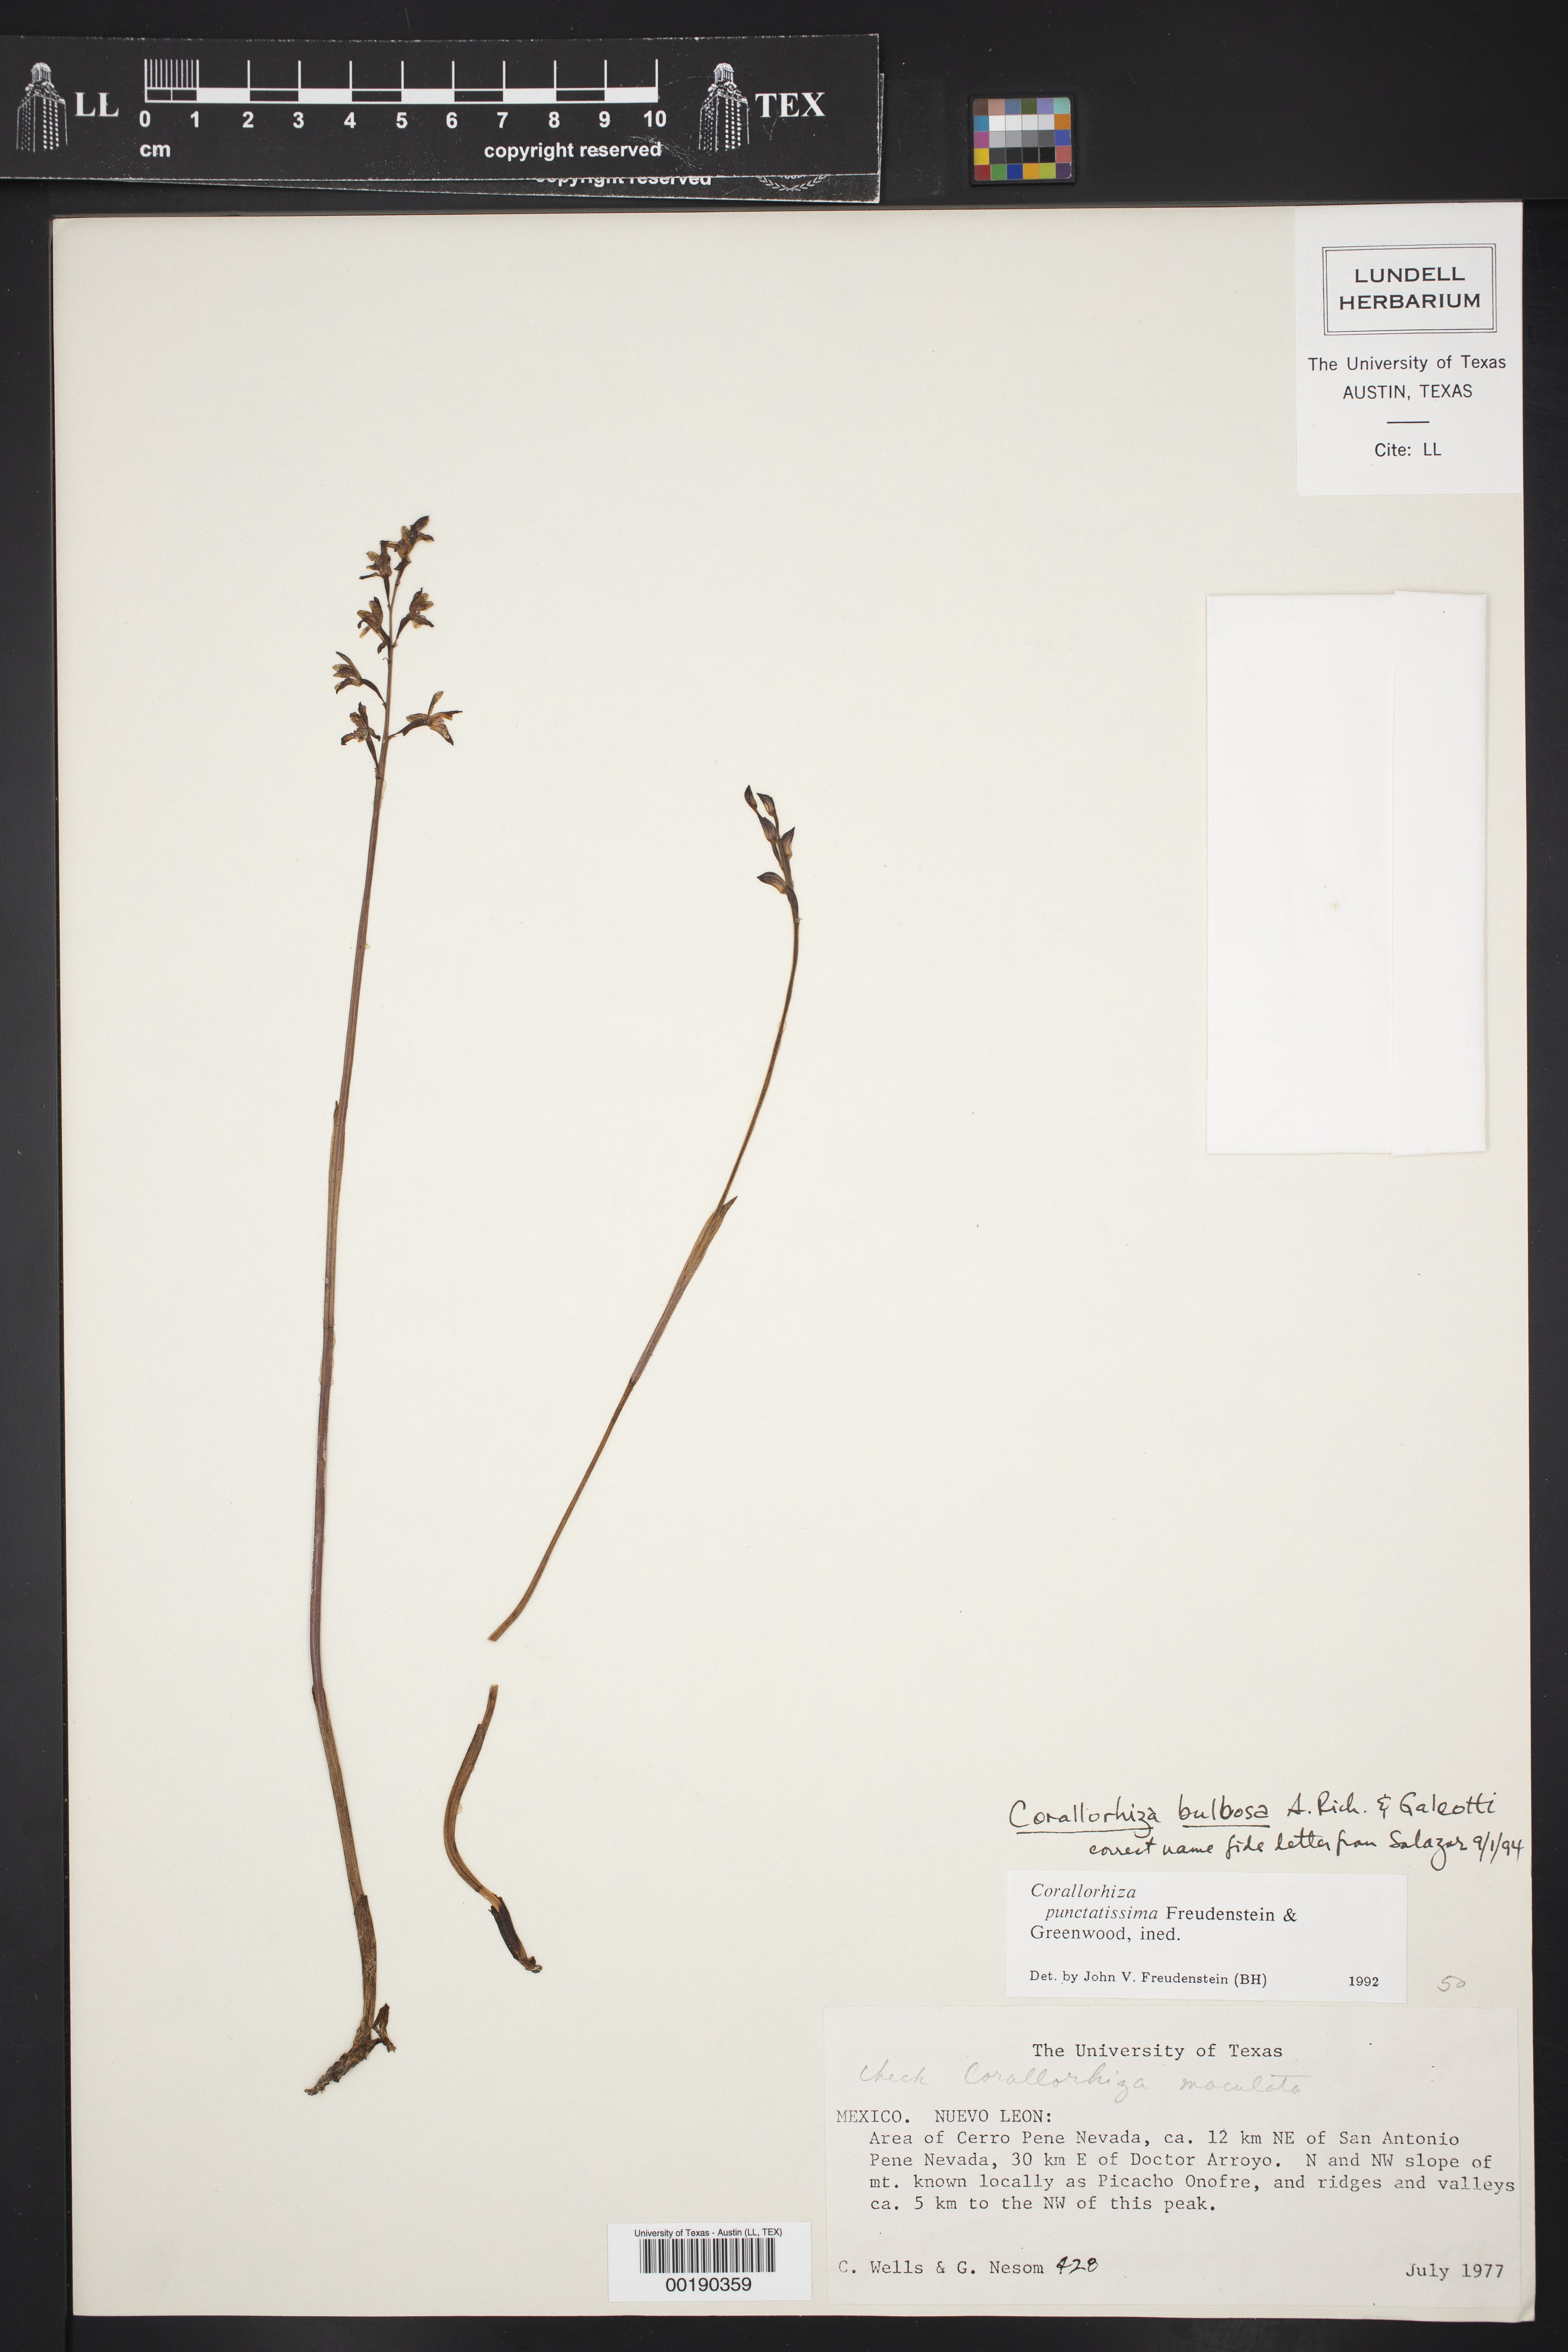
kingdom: Plantae
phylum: Tracheophyta
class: Liliopsida
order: Asparagales
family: Orchidaceae
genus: Corallorhiza
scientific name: Corallorhiza bulbosa
